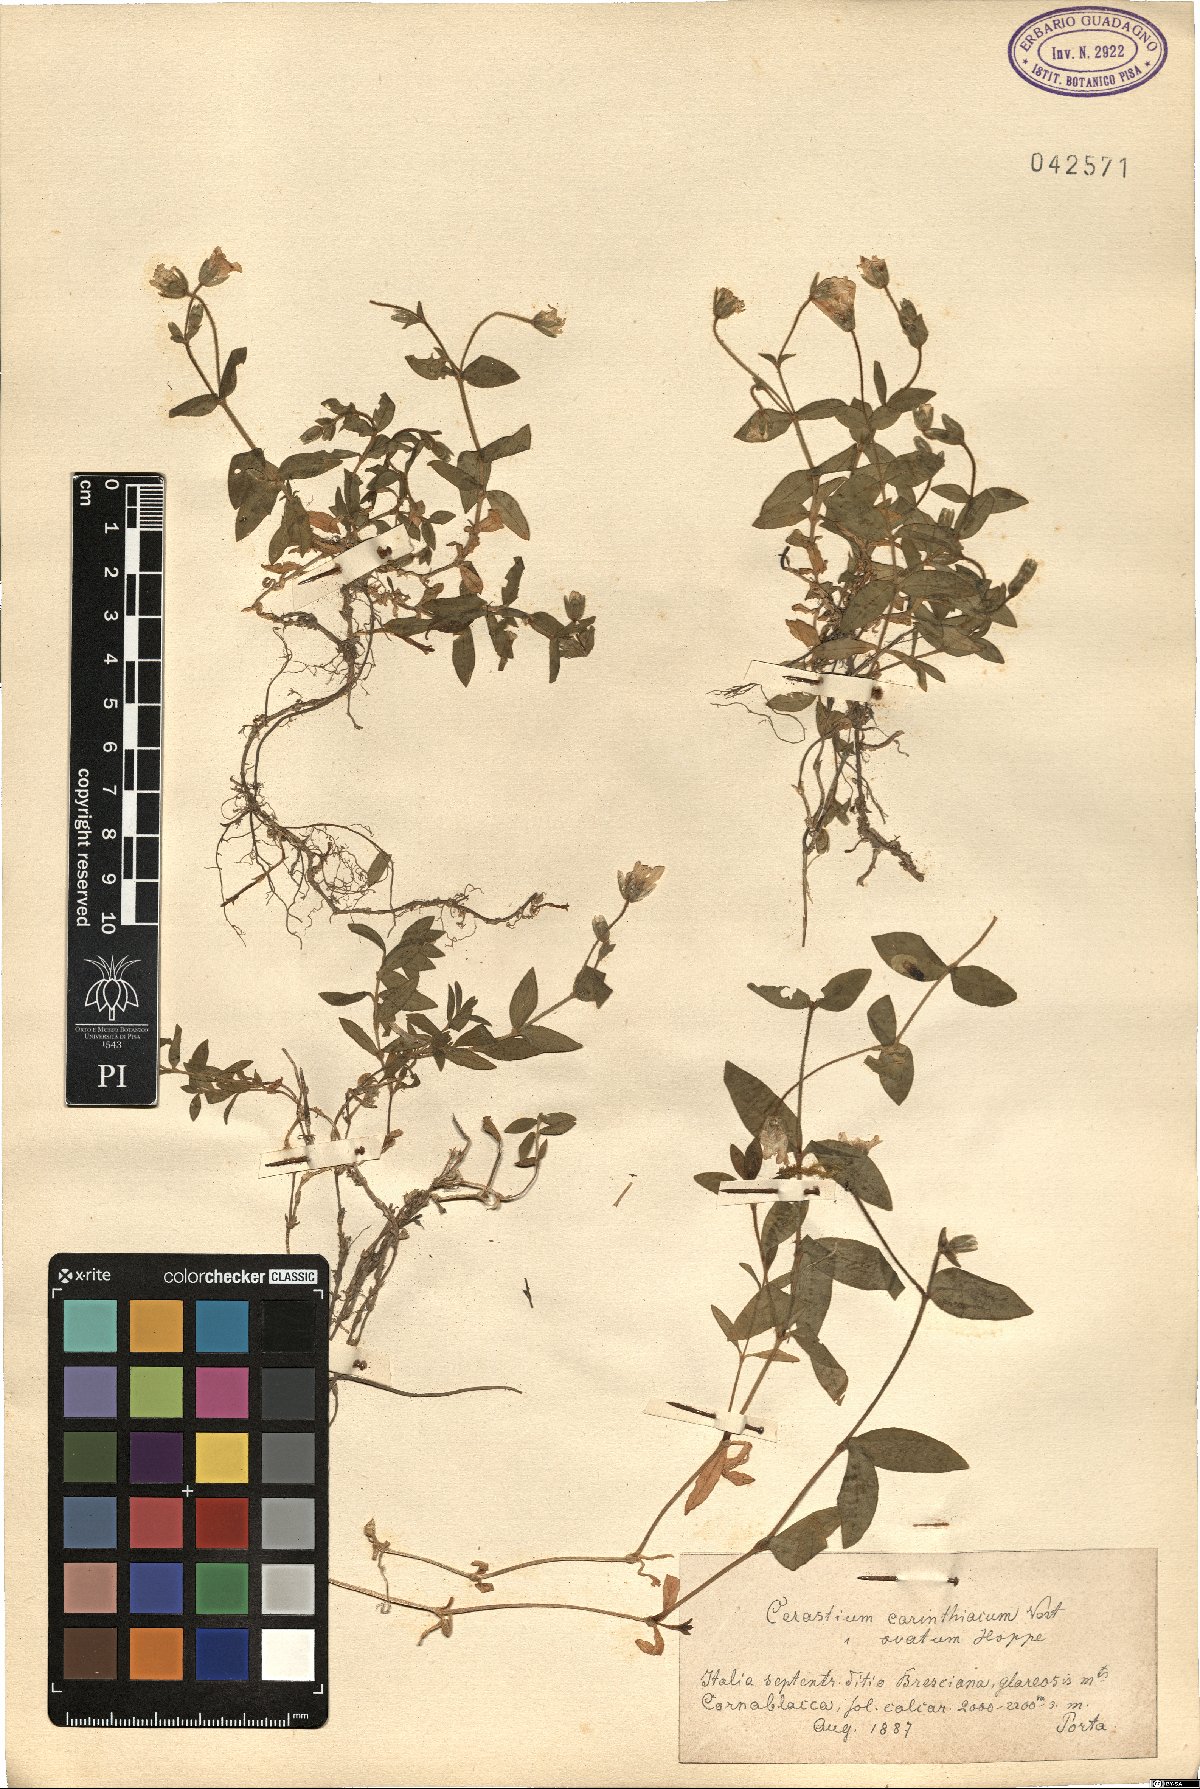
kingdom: Plantae
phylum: Tracheophyta
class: Magnoliopsida
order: Caryophyllales
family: Caryophyllaceae
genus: Cerastium
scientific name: Cerastium carinthiacum
